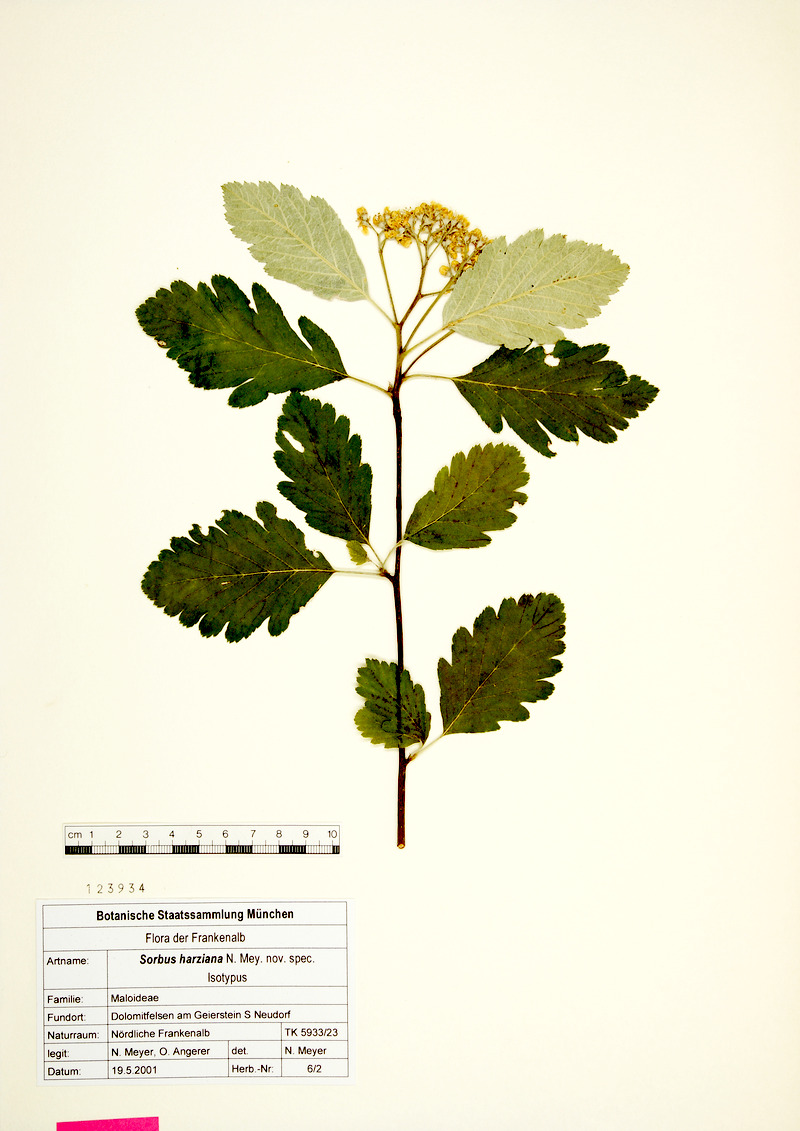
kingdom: Plantae
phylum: Tracheophyta
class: Magnoliopsida
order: Rosales
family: Rosaceae
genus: Hedlundia
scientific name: Hedlundia harziana
